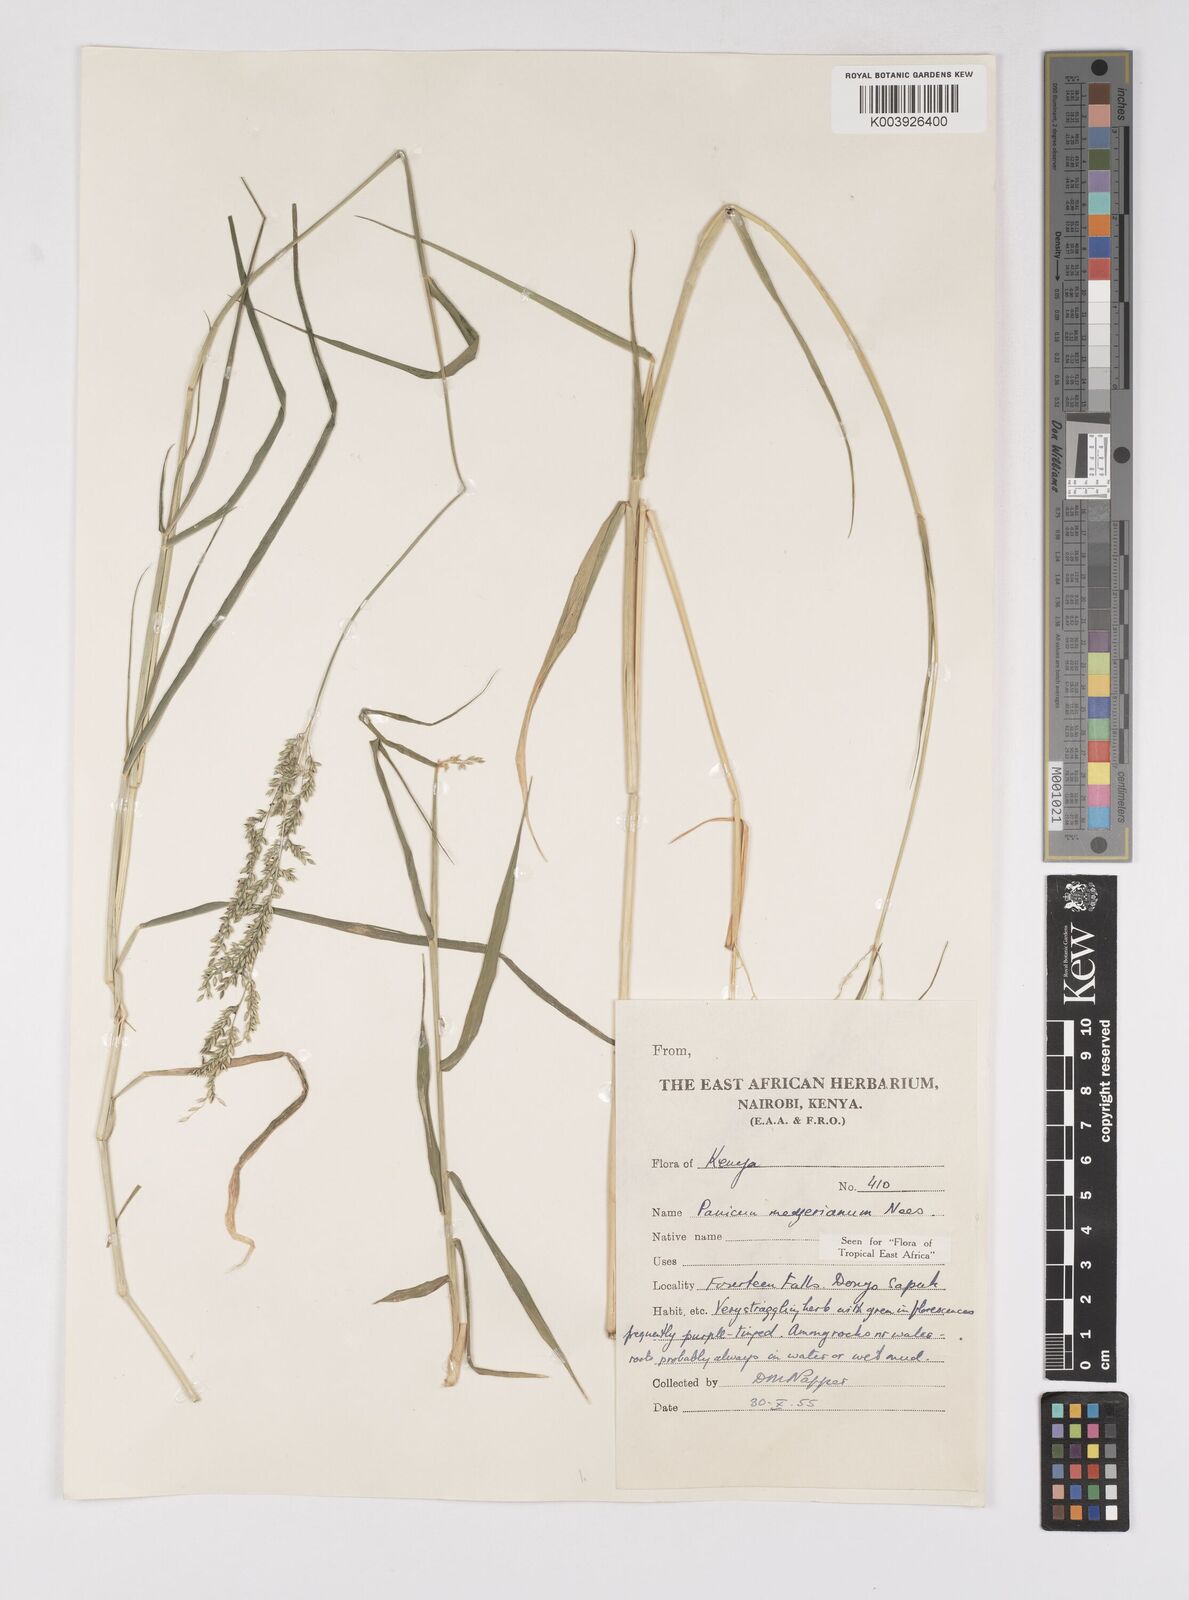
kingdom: Plantae
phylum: Tracheophyta
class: Liliopsida
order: Poales
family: Poaceae
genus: Eriochloa
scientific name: Eriochloa meyeriana
